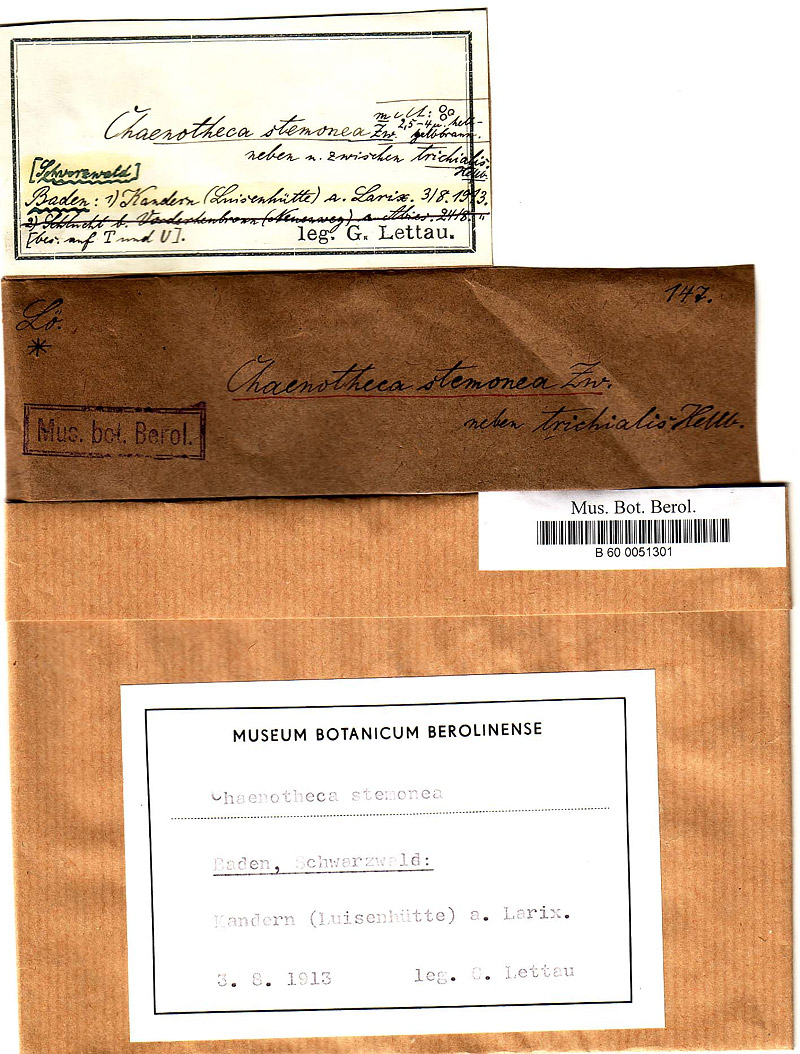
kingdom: Fungi
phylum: Ascomycota
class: Coniocybomycetes
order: Coniocybales
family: Coniocybaceae
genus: Chaenotheca
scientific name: Chaenotheca stemonea
